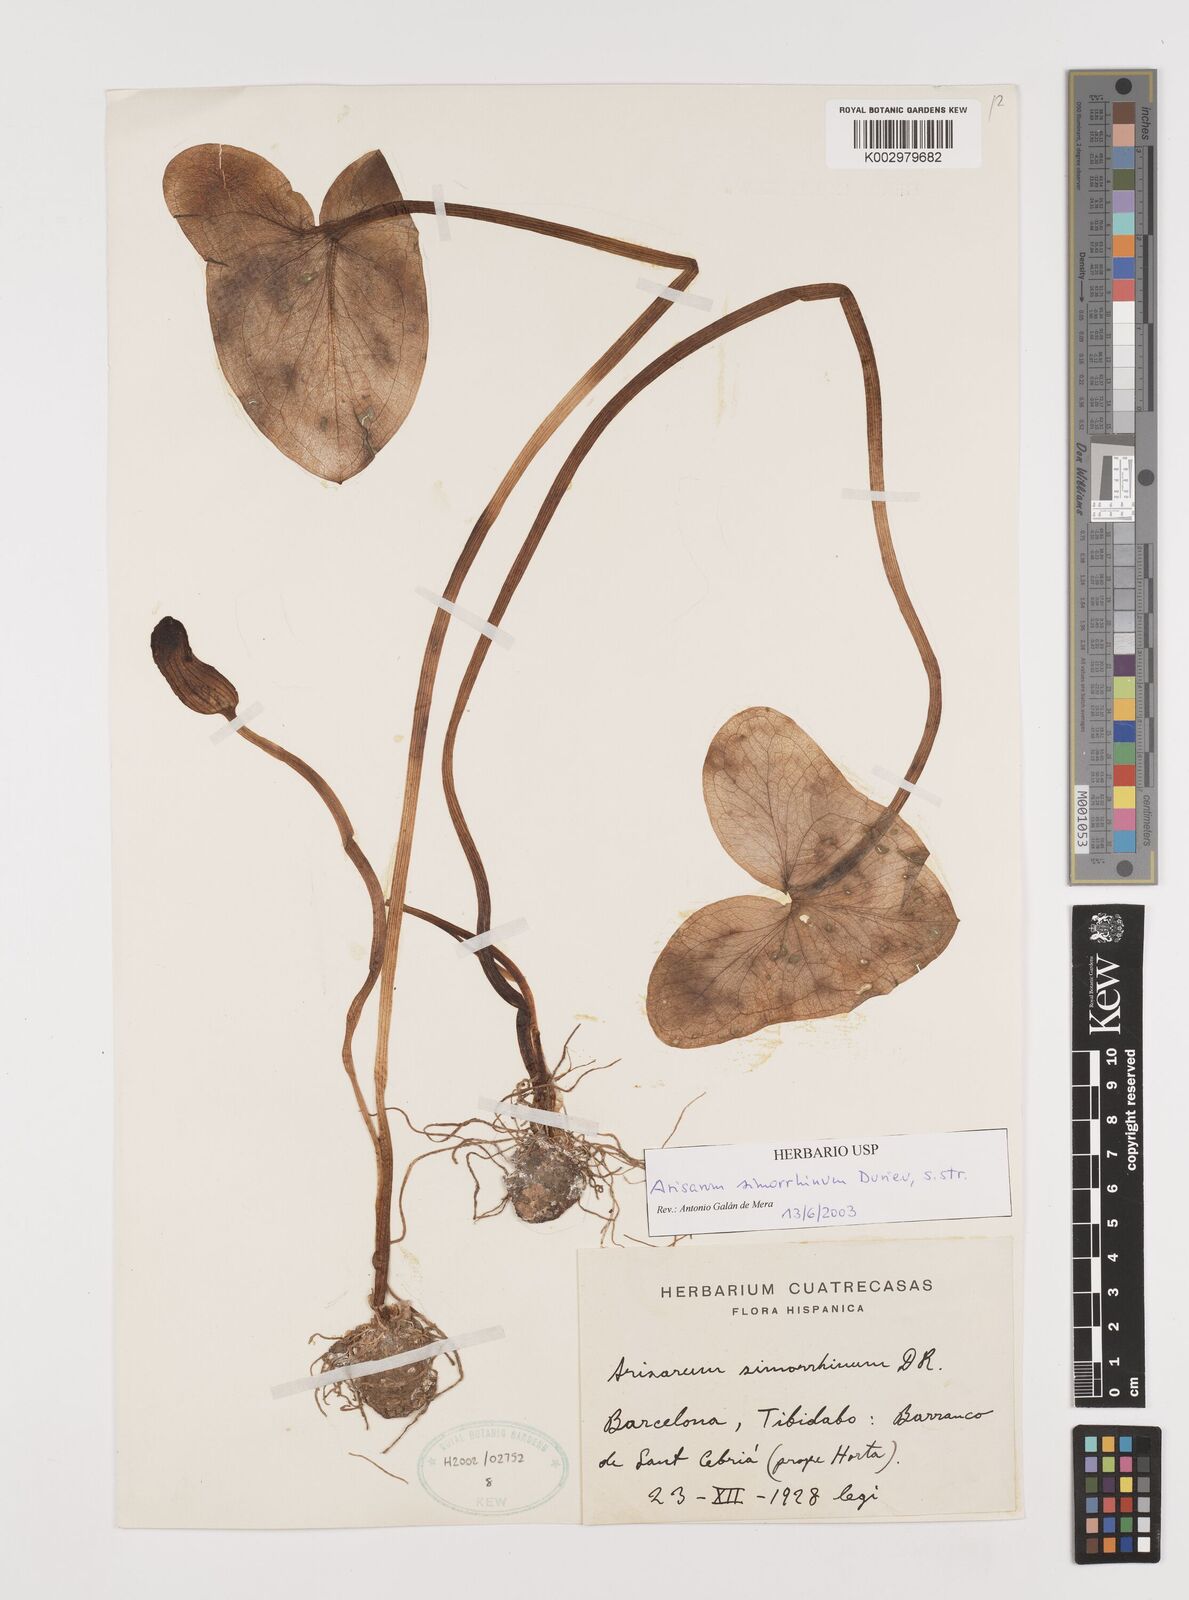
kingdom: Plantae
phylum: Tracheophyta
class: Liliopsida
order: Alismatales
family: Araceae
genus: Arisarum
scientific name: Arisarum simorrhinum
